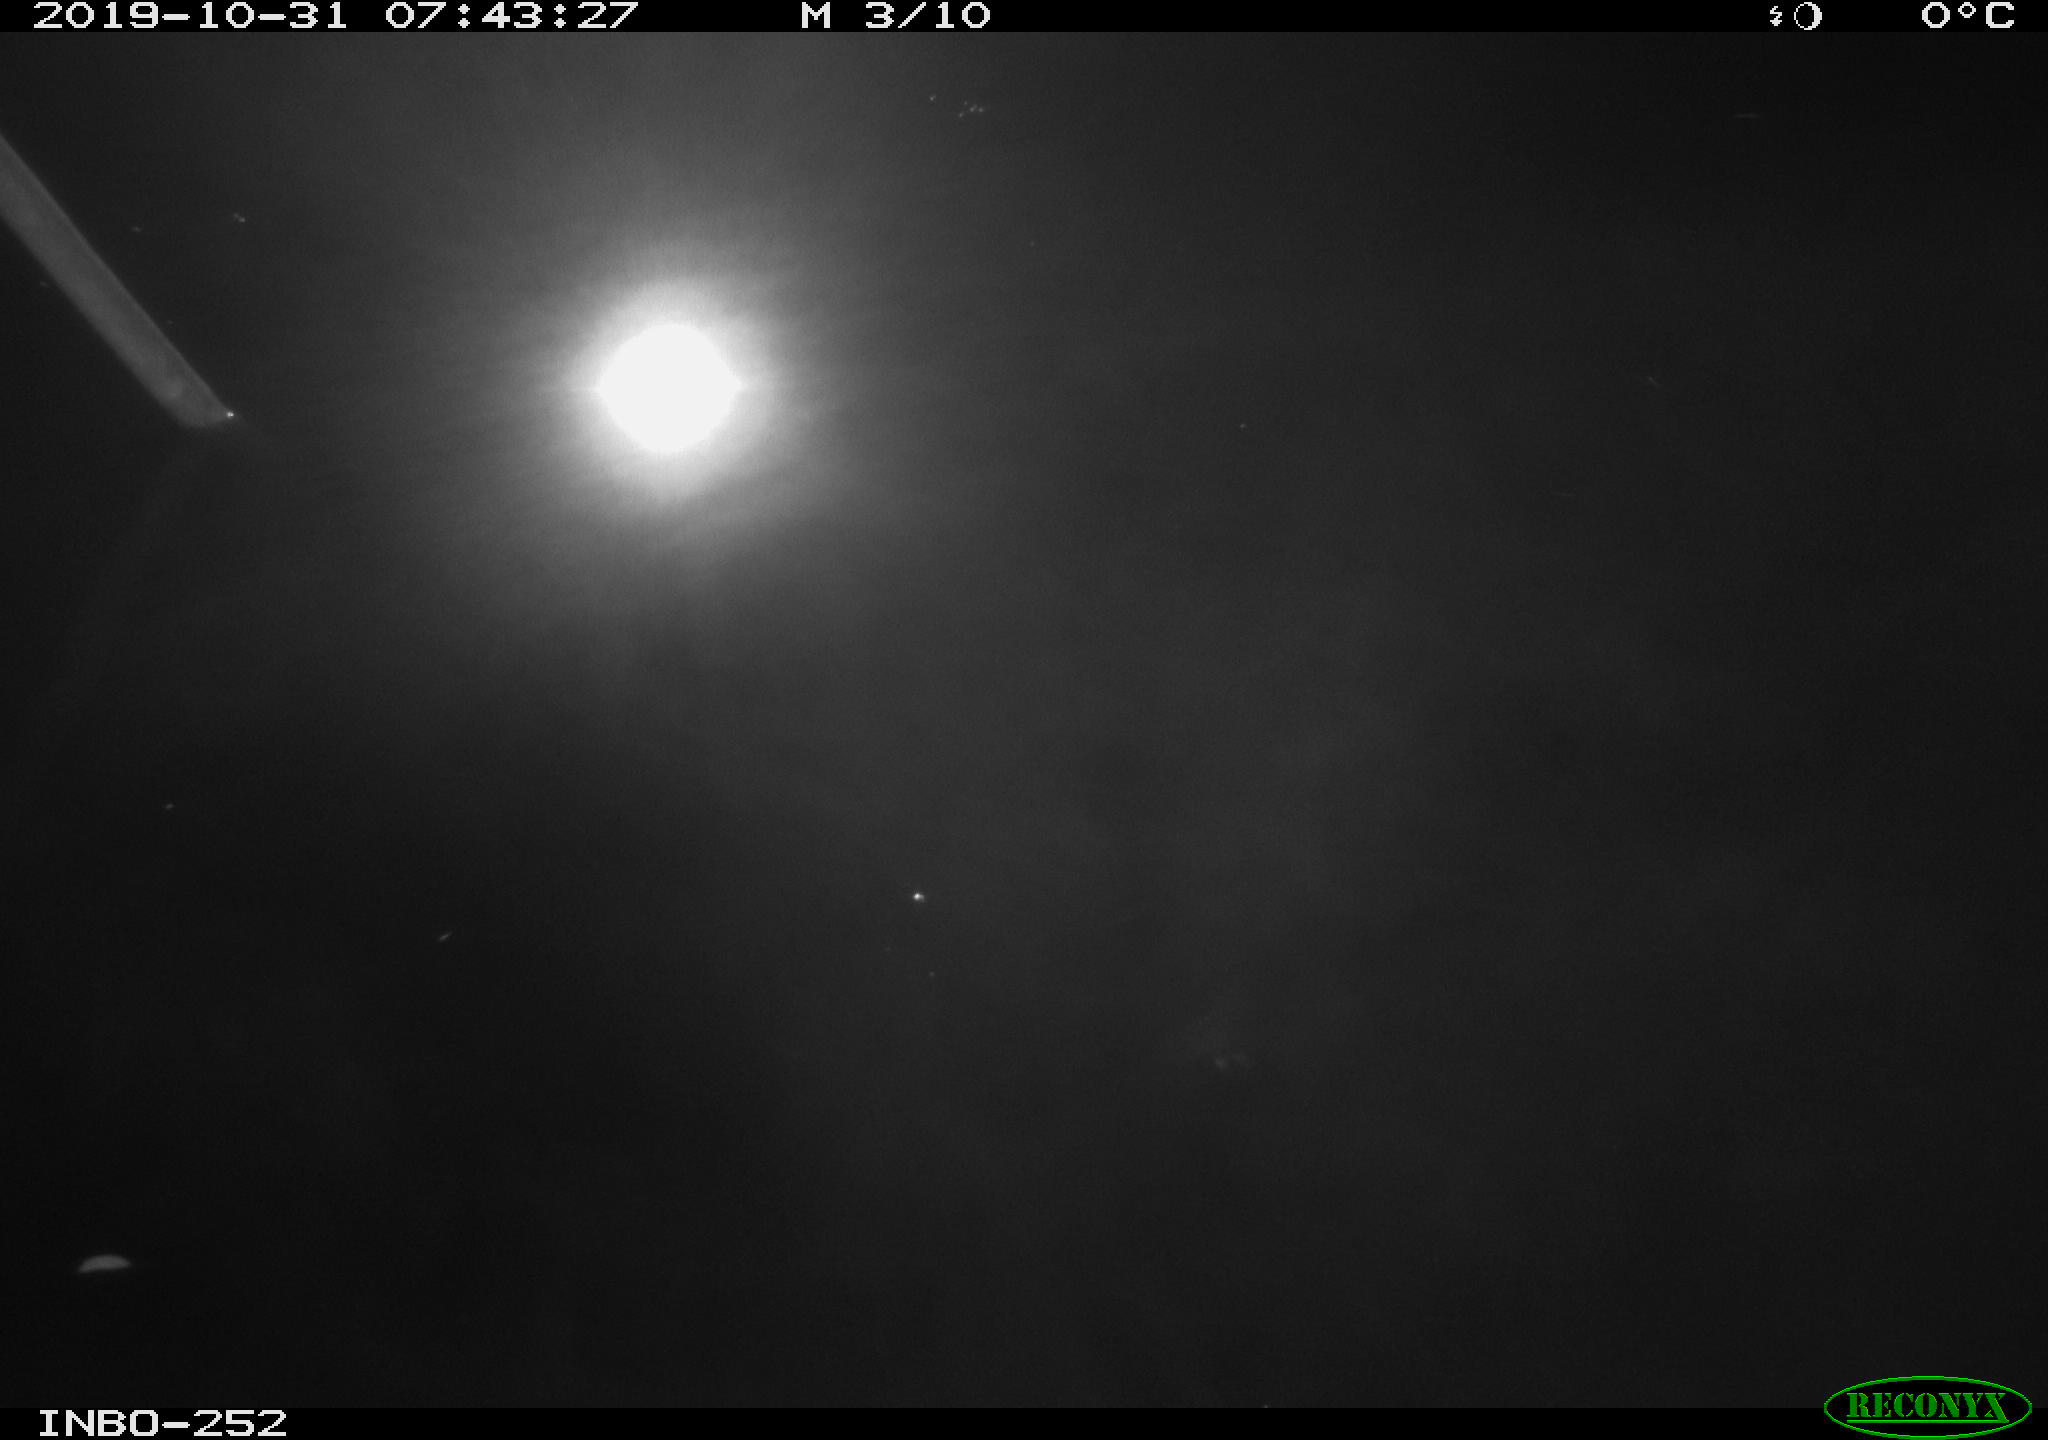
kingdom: Animalia
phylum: Chordata
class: Aves
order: Gruiformes
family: Rallidae
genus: Gallinula
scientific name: Gallinula chloropus
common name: Common moorhen
